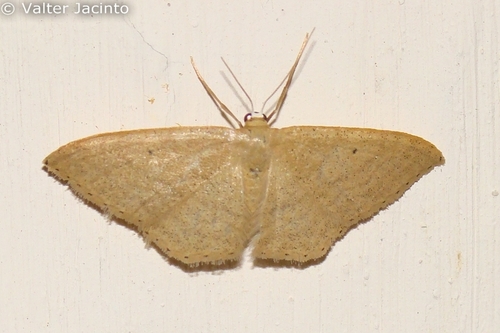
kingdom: Animalia
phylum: Arthropoda
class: Insecta
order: Lepidoptera
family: Geometridae
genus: Idaea
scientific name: Idaea sardoniata
